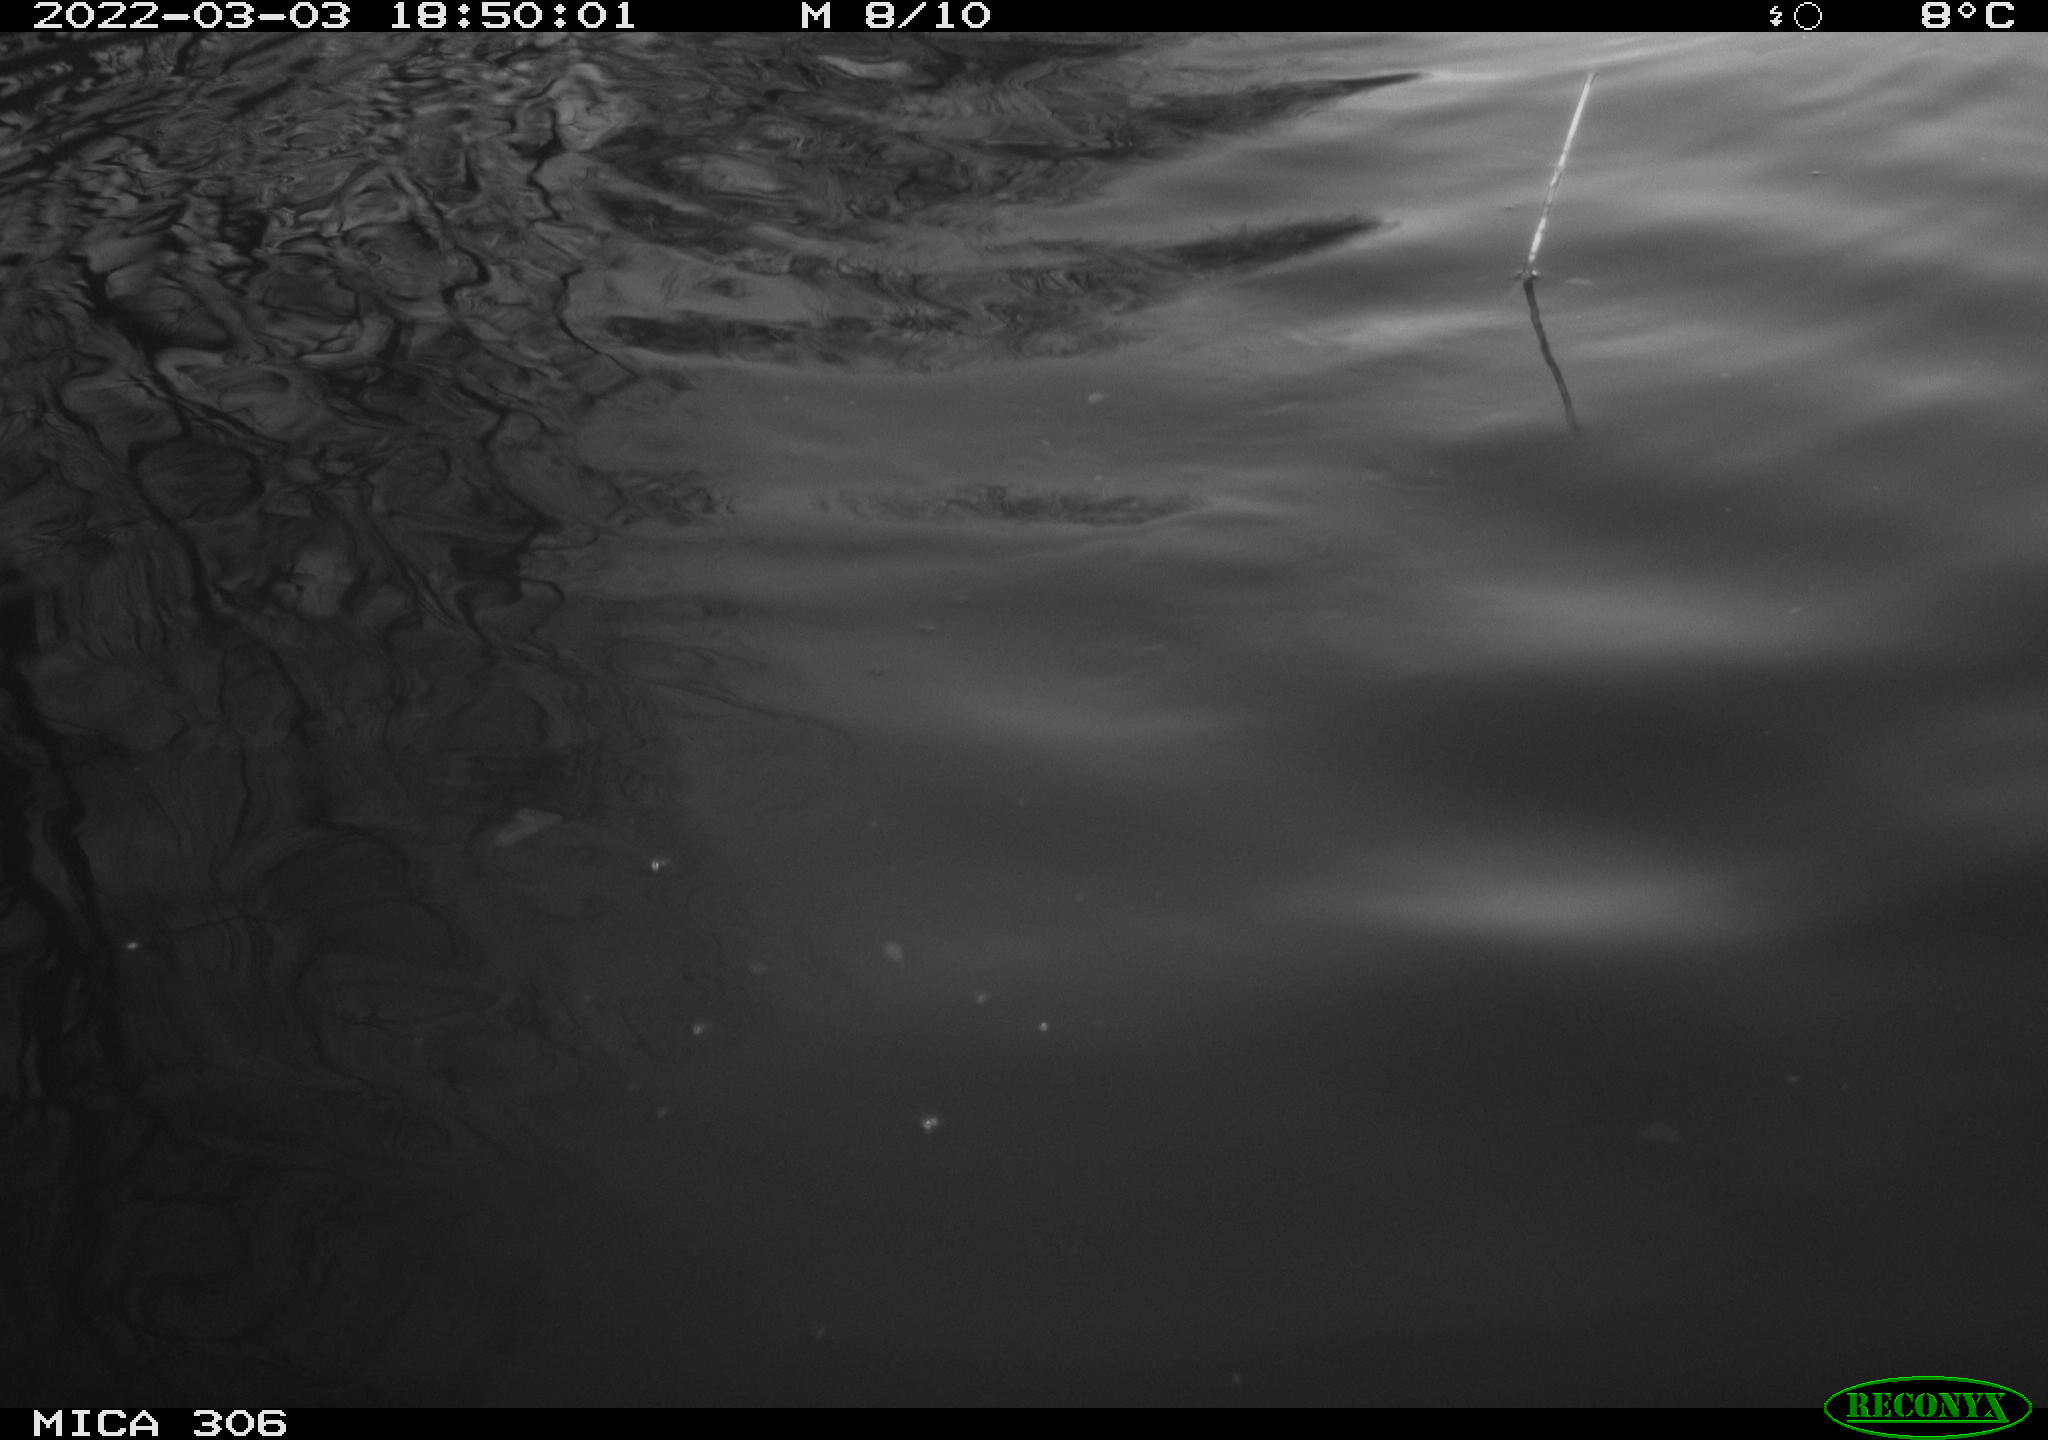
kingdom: Animalia
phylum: Chordata
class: Mammalia
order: Rodentia
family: Cricetidae
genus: Ondatra
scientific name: Ondatra zibethicus
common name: Muskrat
